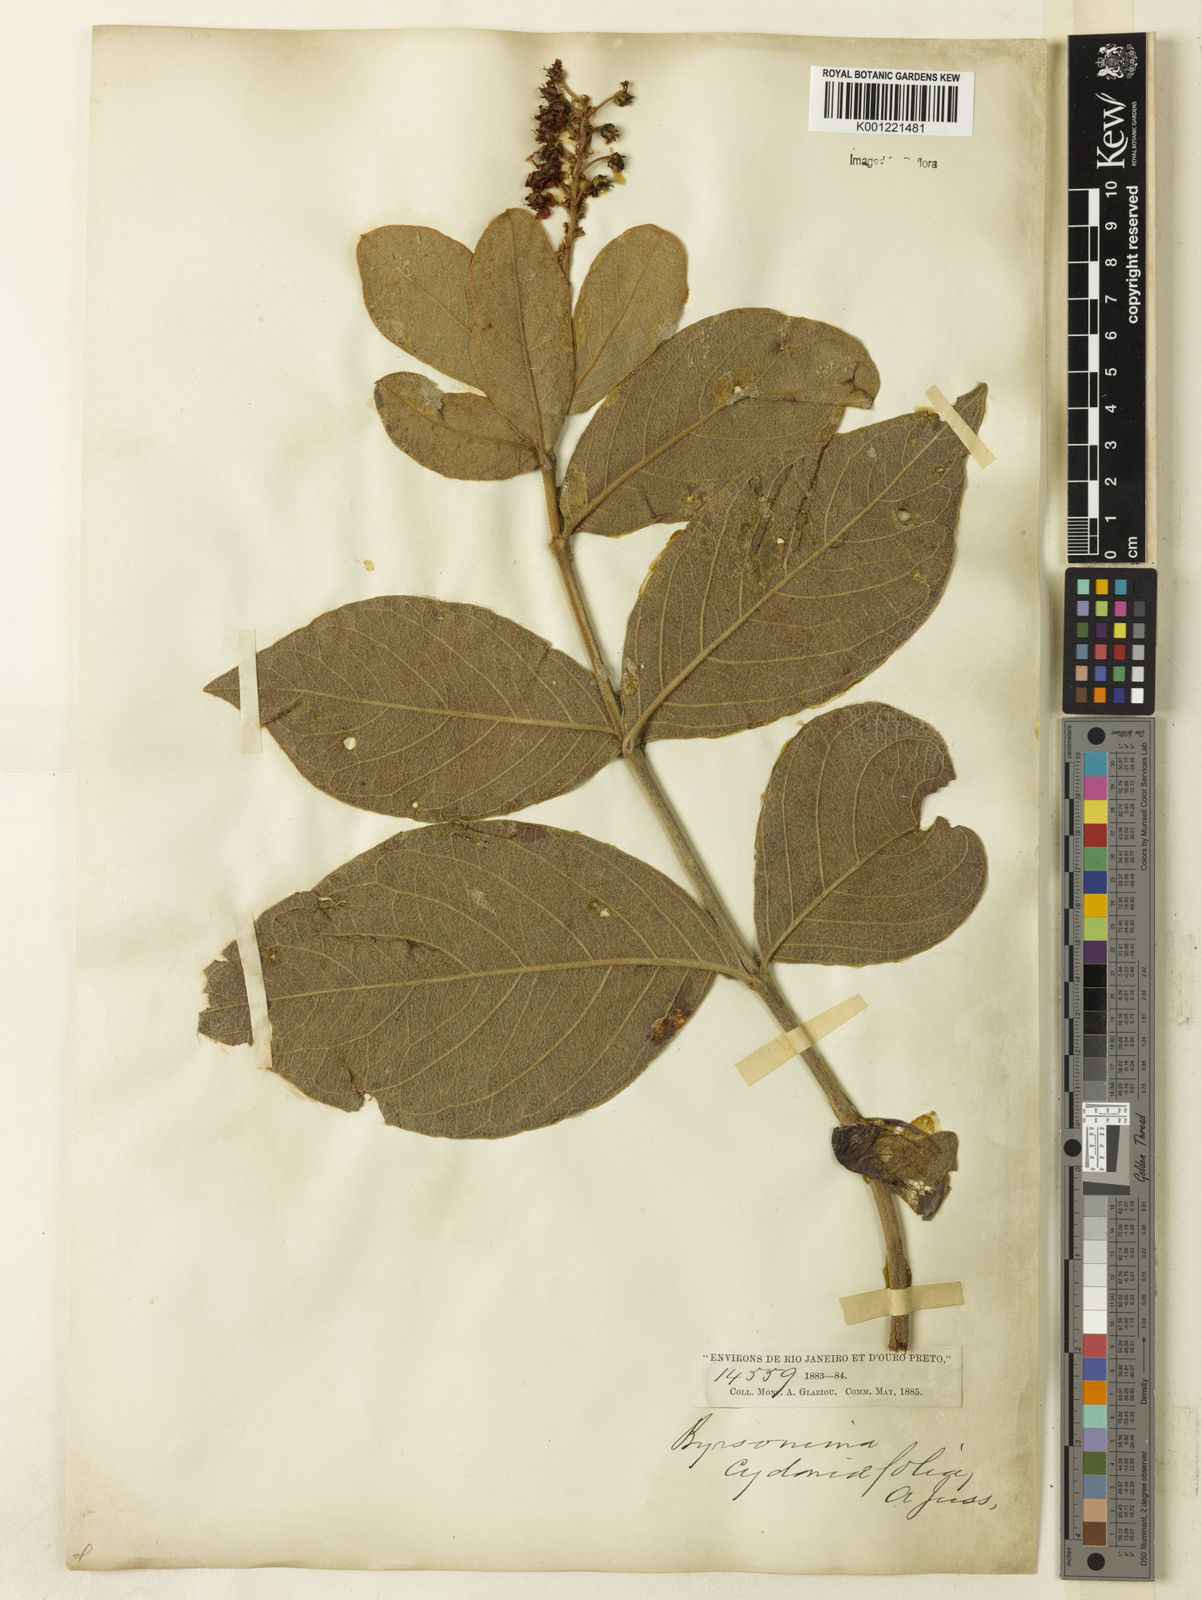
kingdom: Plantae
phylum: Tracheophyta
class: Magnoliopsida
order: Malpighiales
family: Malpighiaceae
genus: Byrsonima
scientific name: Byrsonima cydoniifolia
